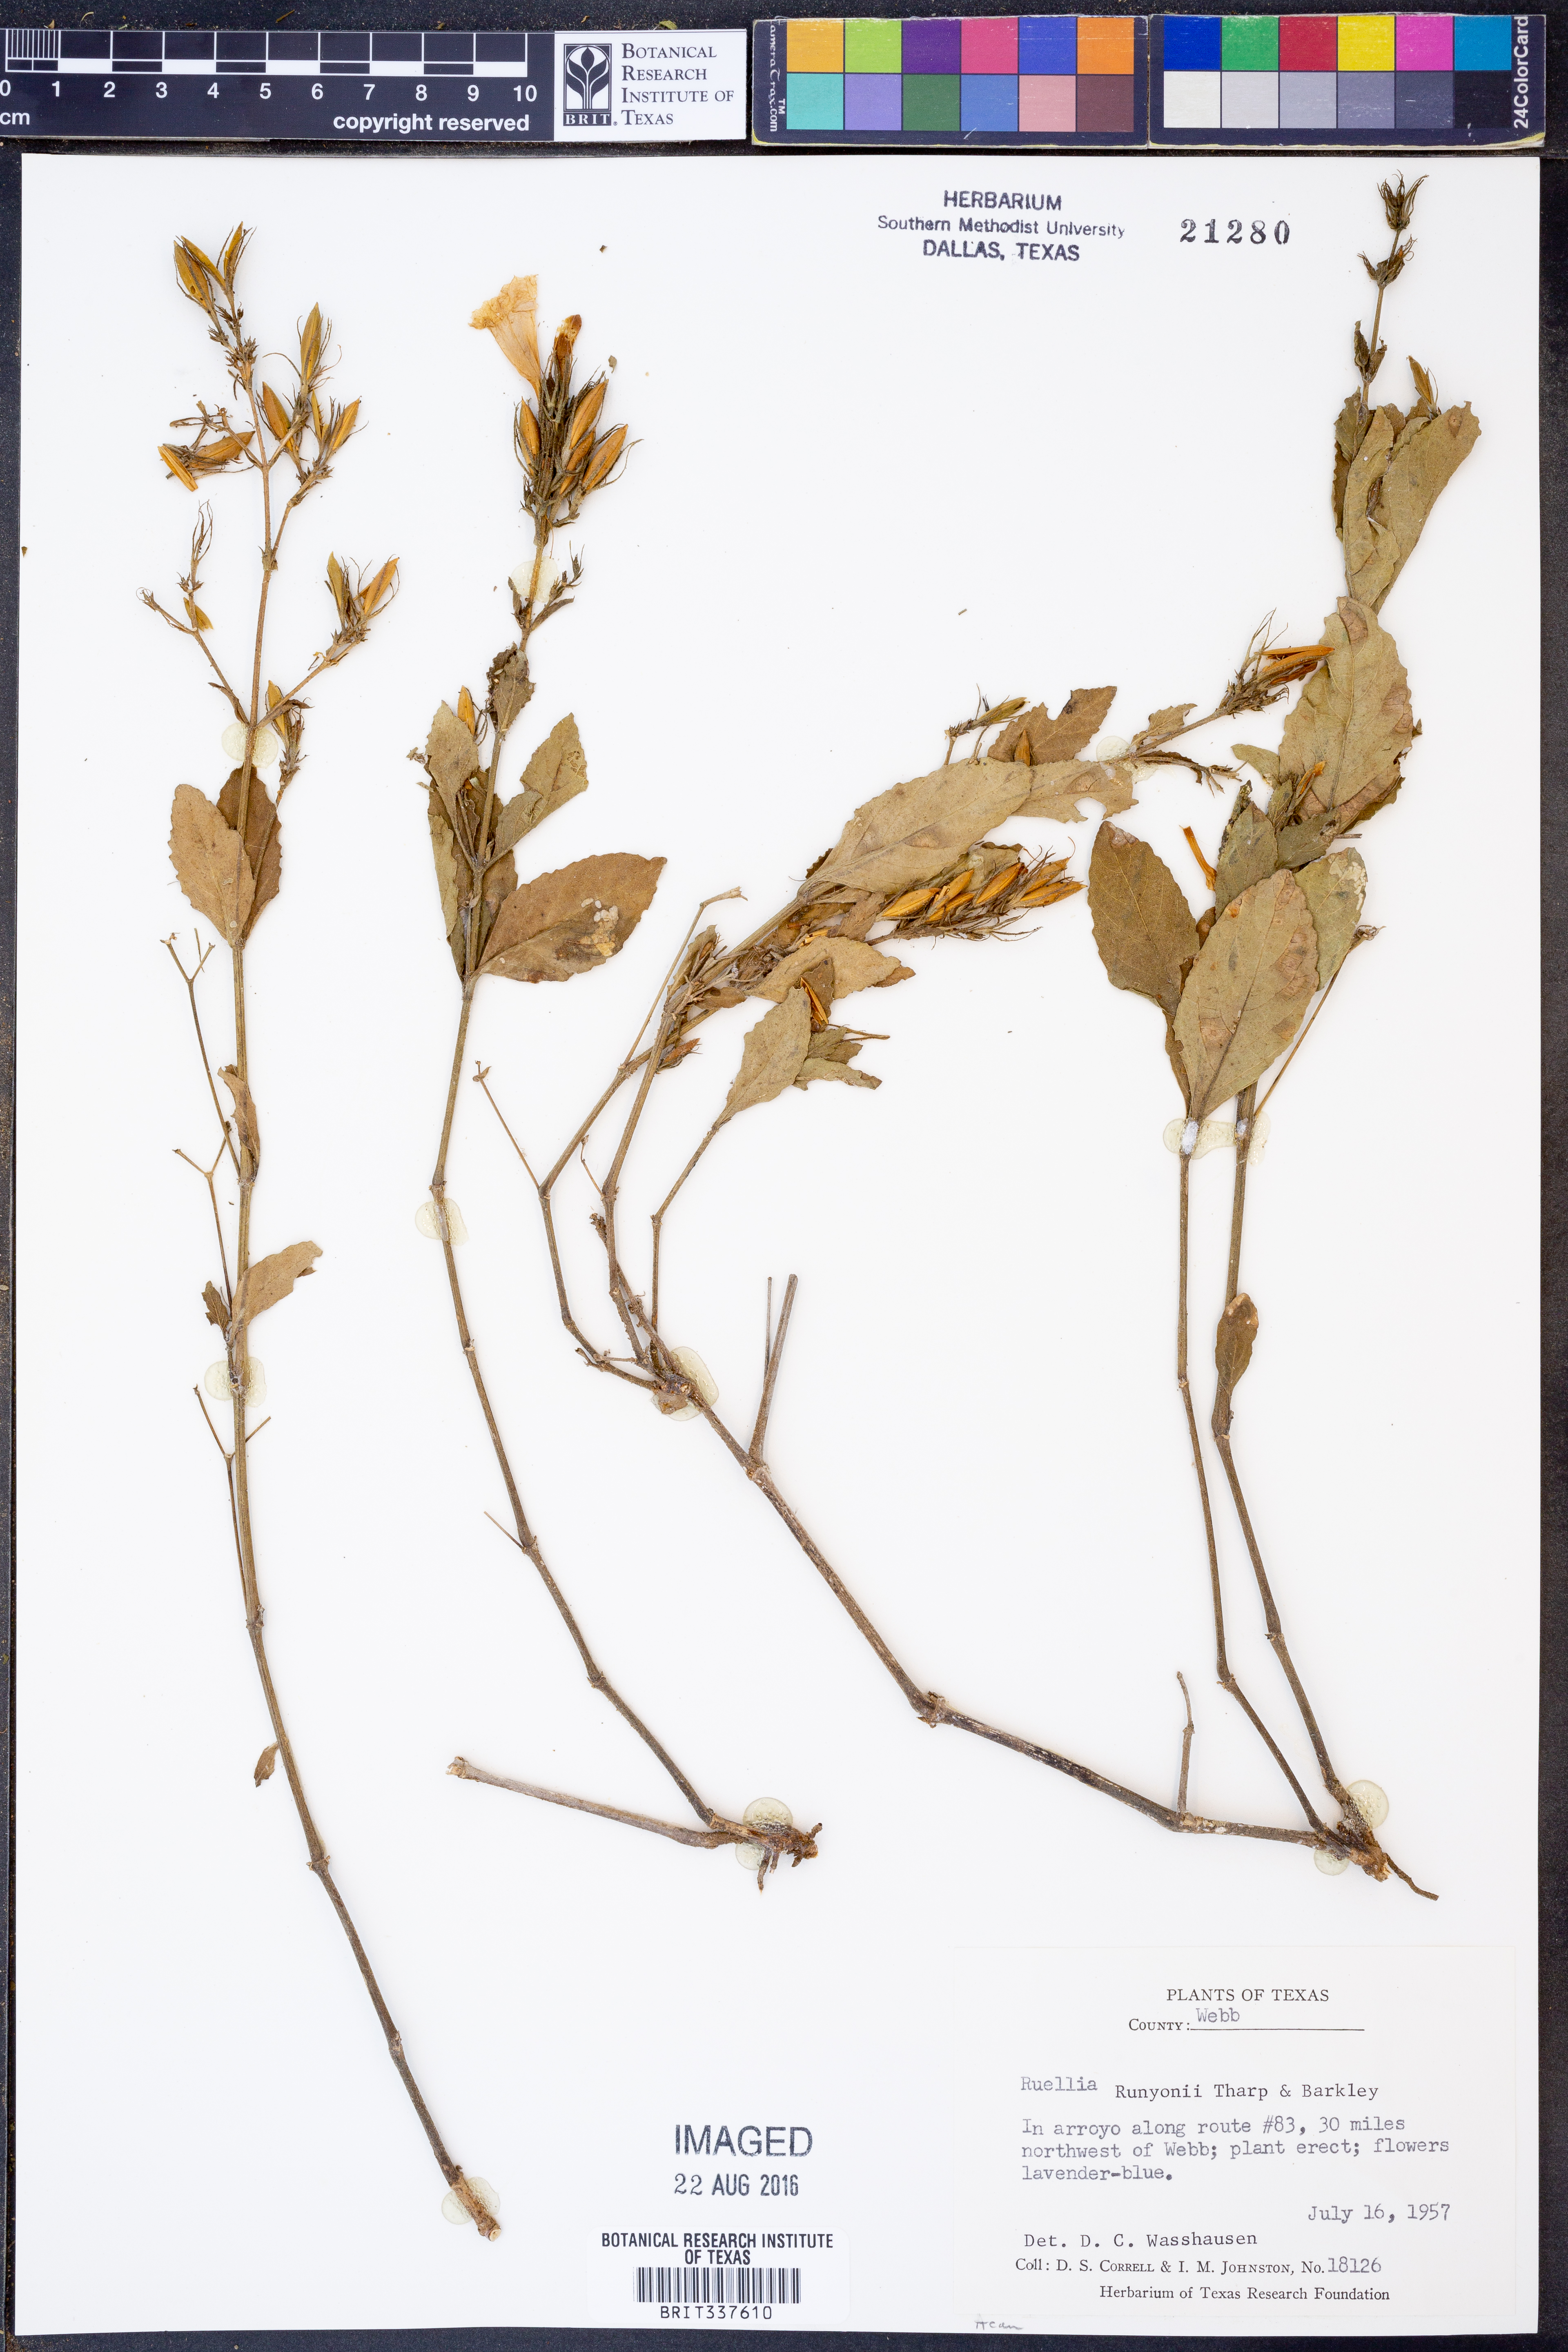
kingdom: Plantae
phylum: Tracheophyta
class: Magnoliopsida
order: Lamiales
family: Acanthaceae
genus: Ruellia
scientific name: Ruellia ciliatiflora
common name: Hairyflower wild petunia
